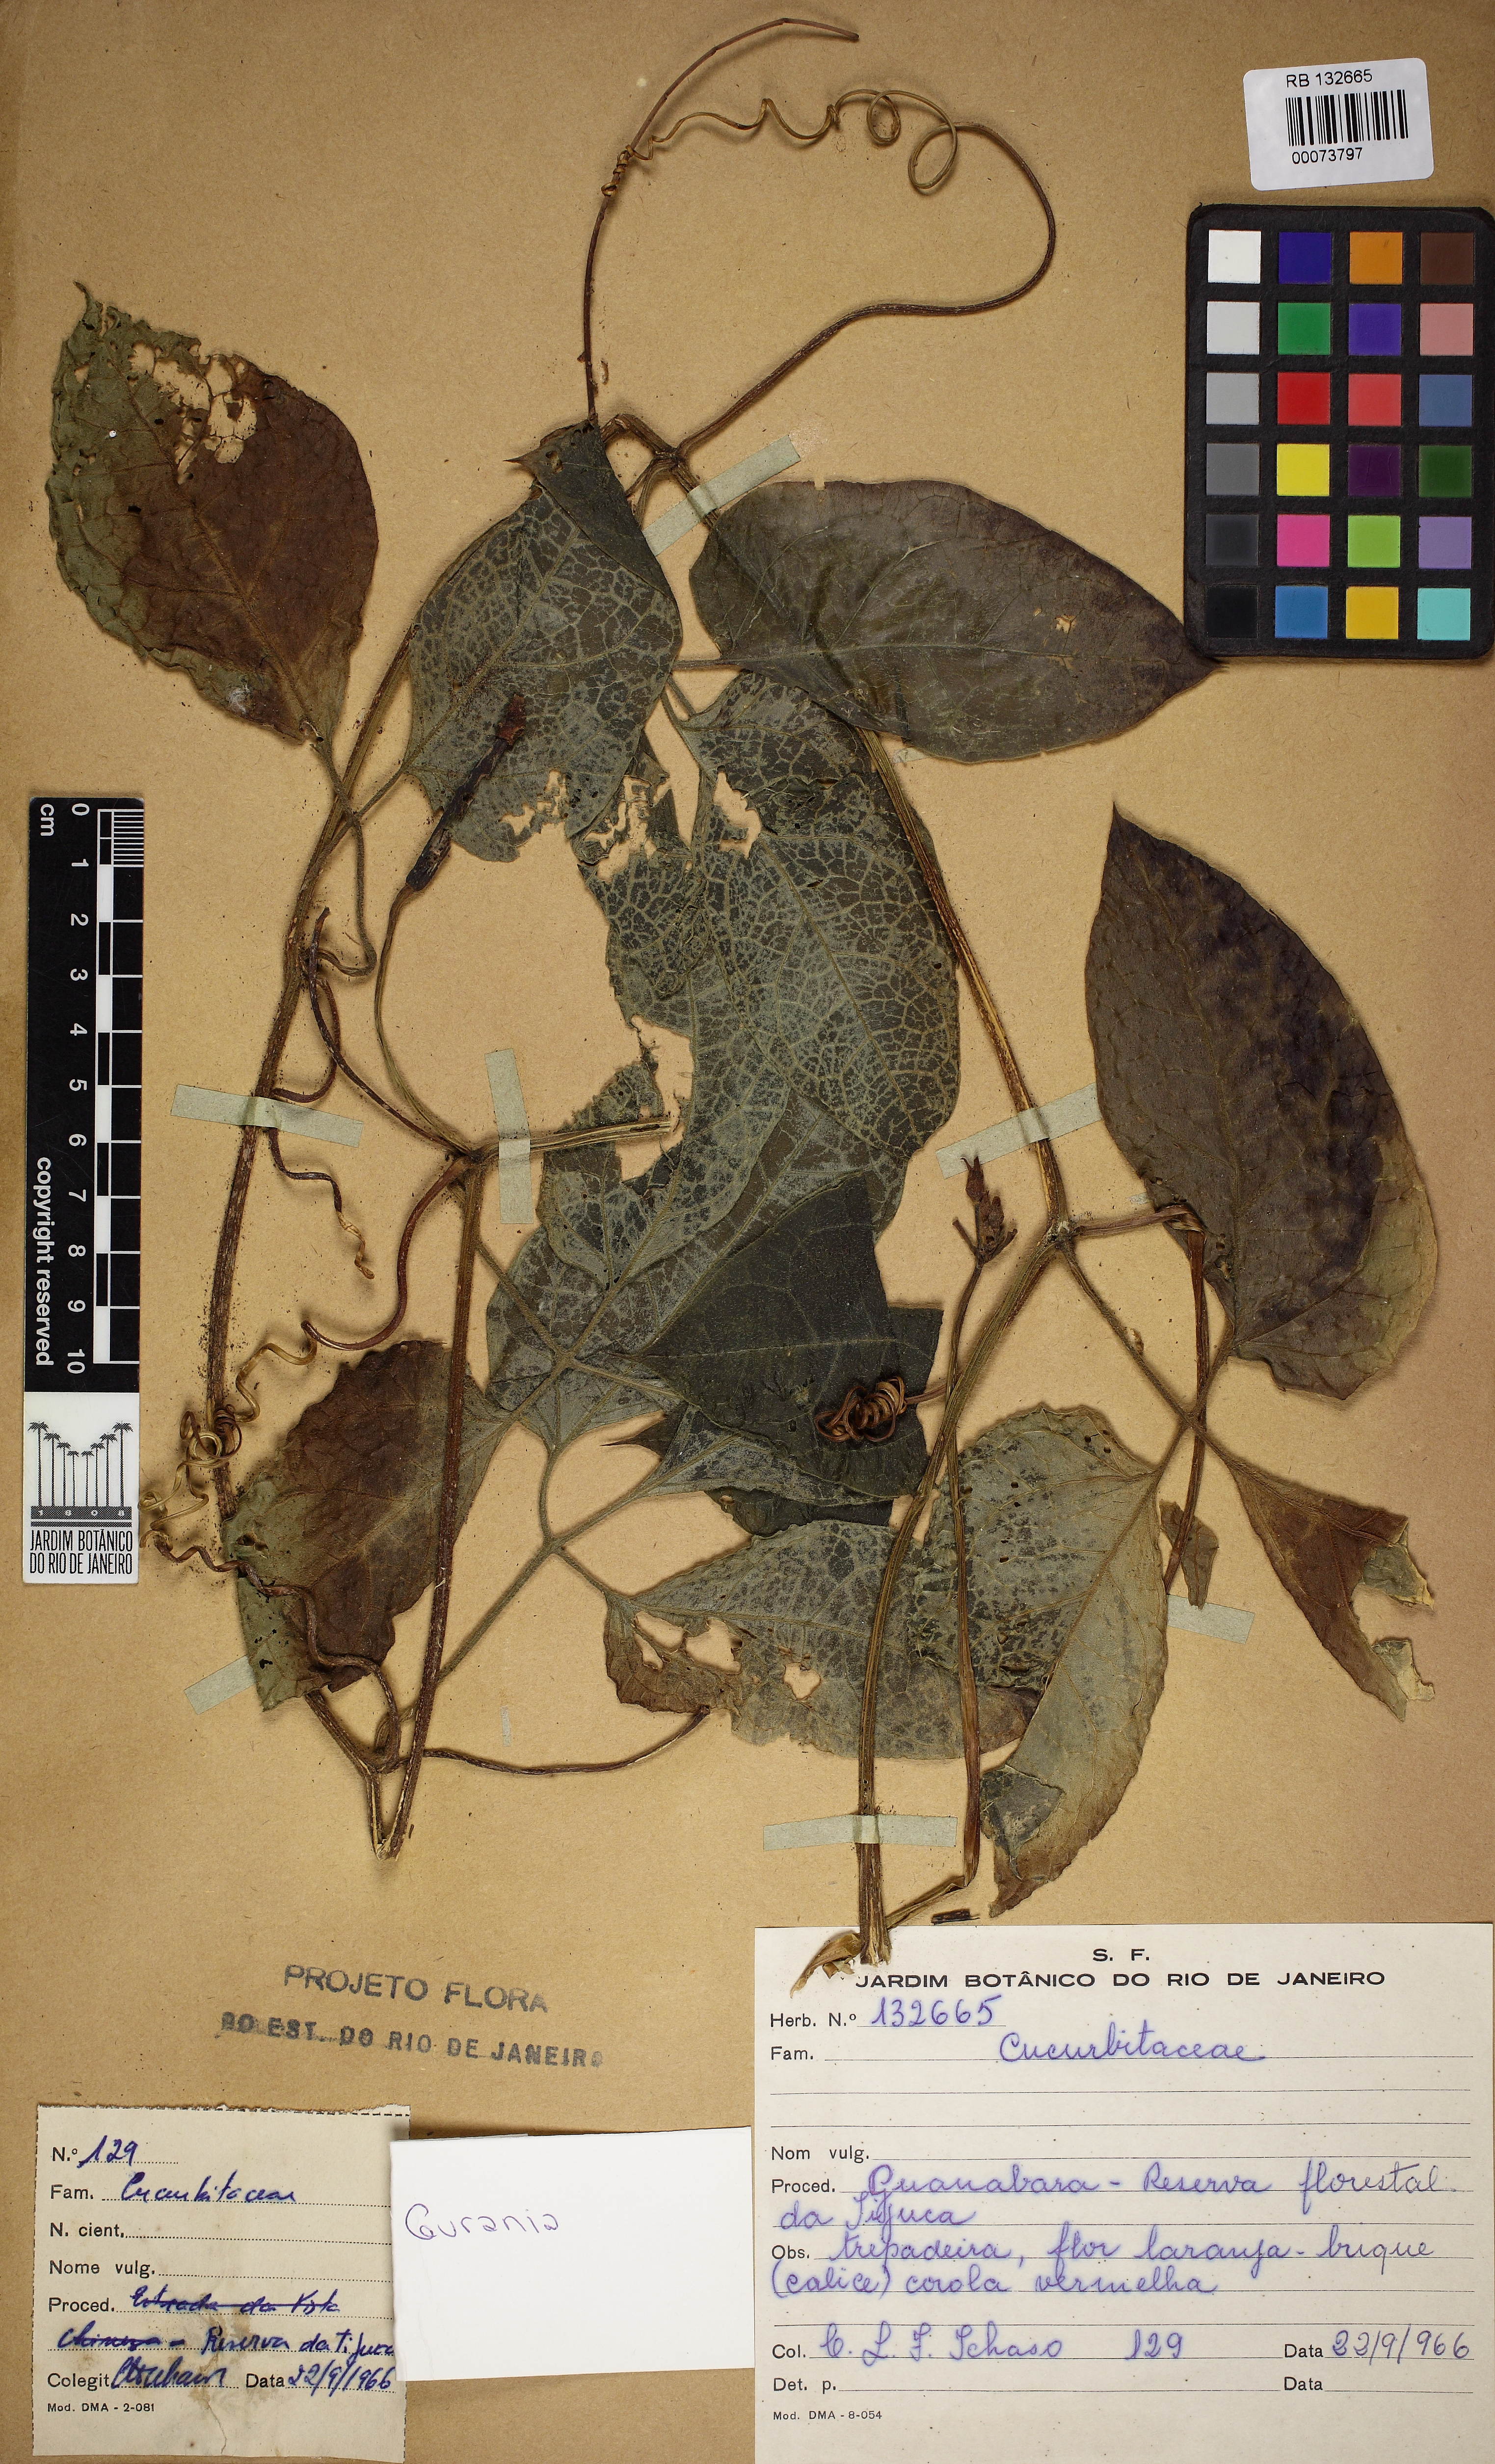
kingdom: Plantae
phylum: Tracheophyta
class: Magnoliopsida
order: Cucurbitales
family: Cucurbitaceae
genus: Gurania
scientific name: Gurania
